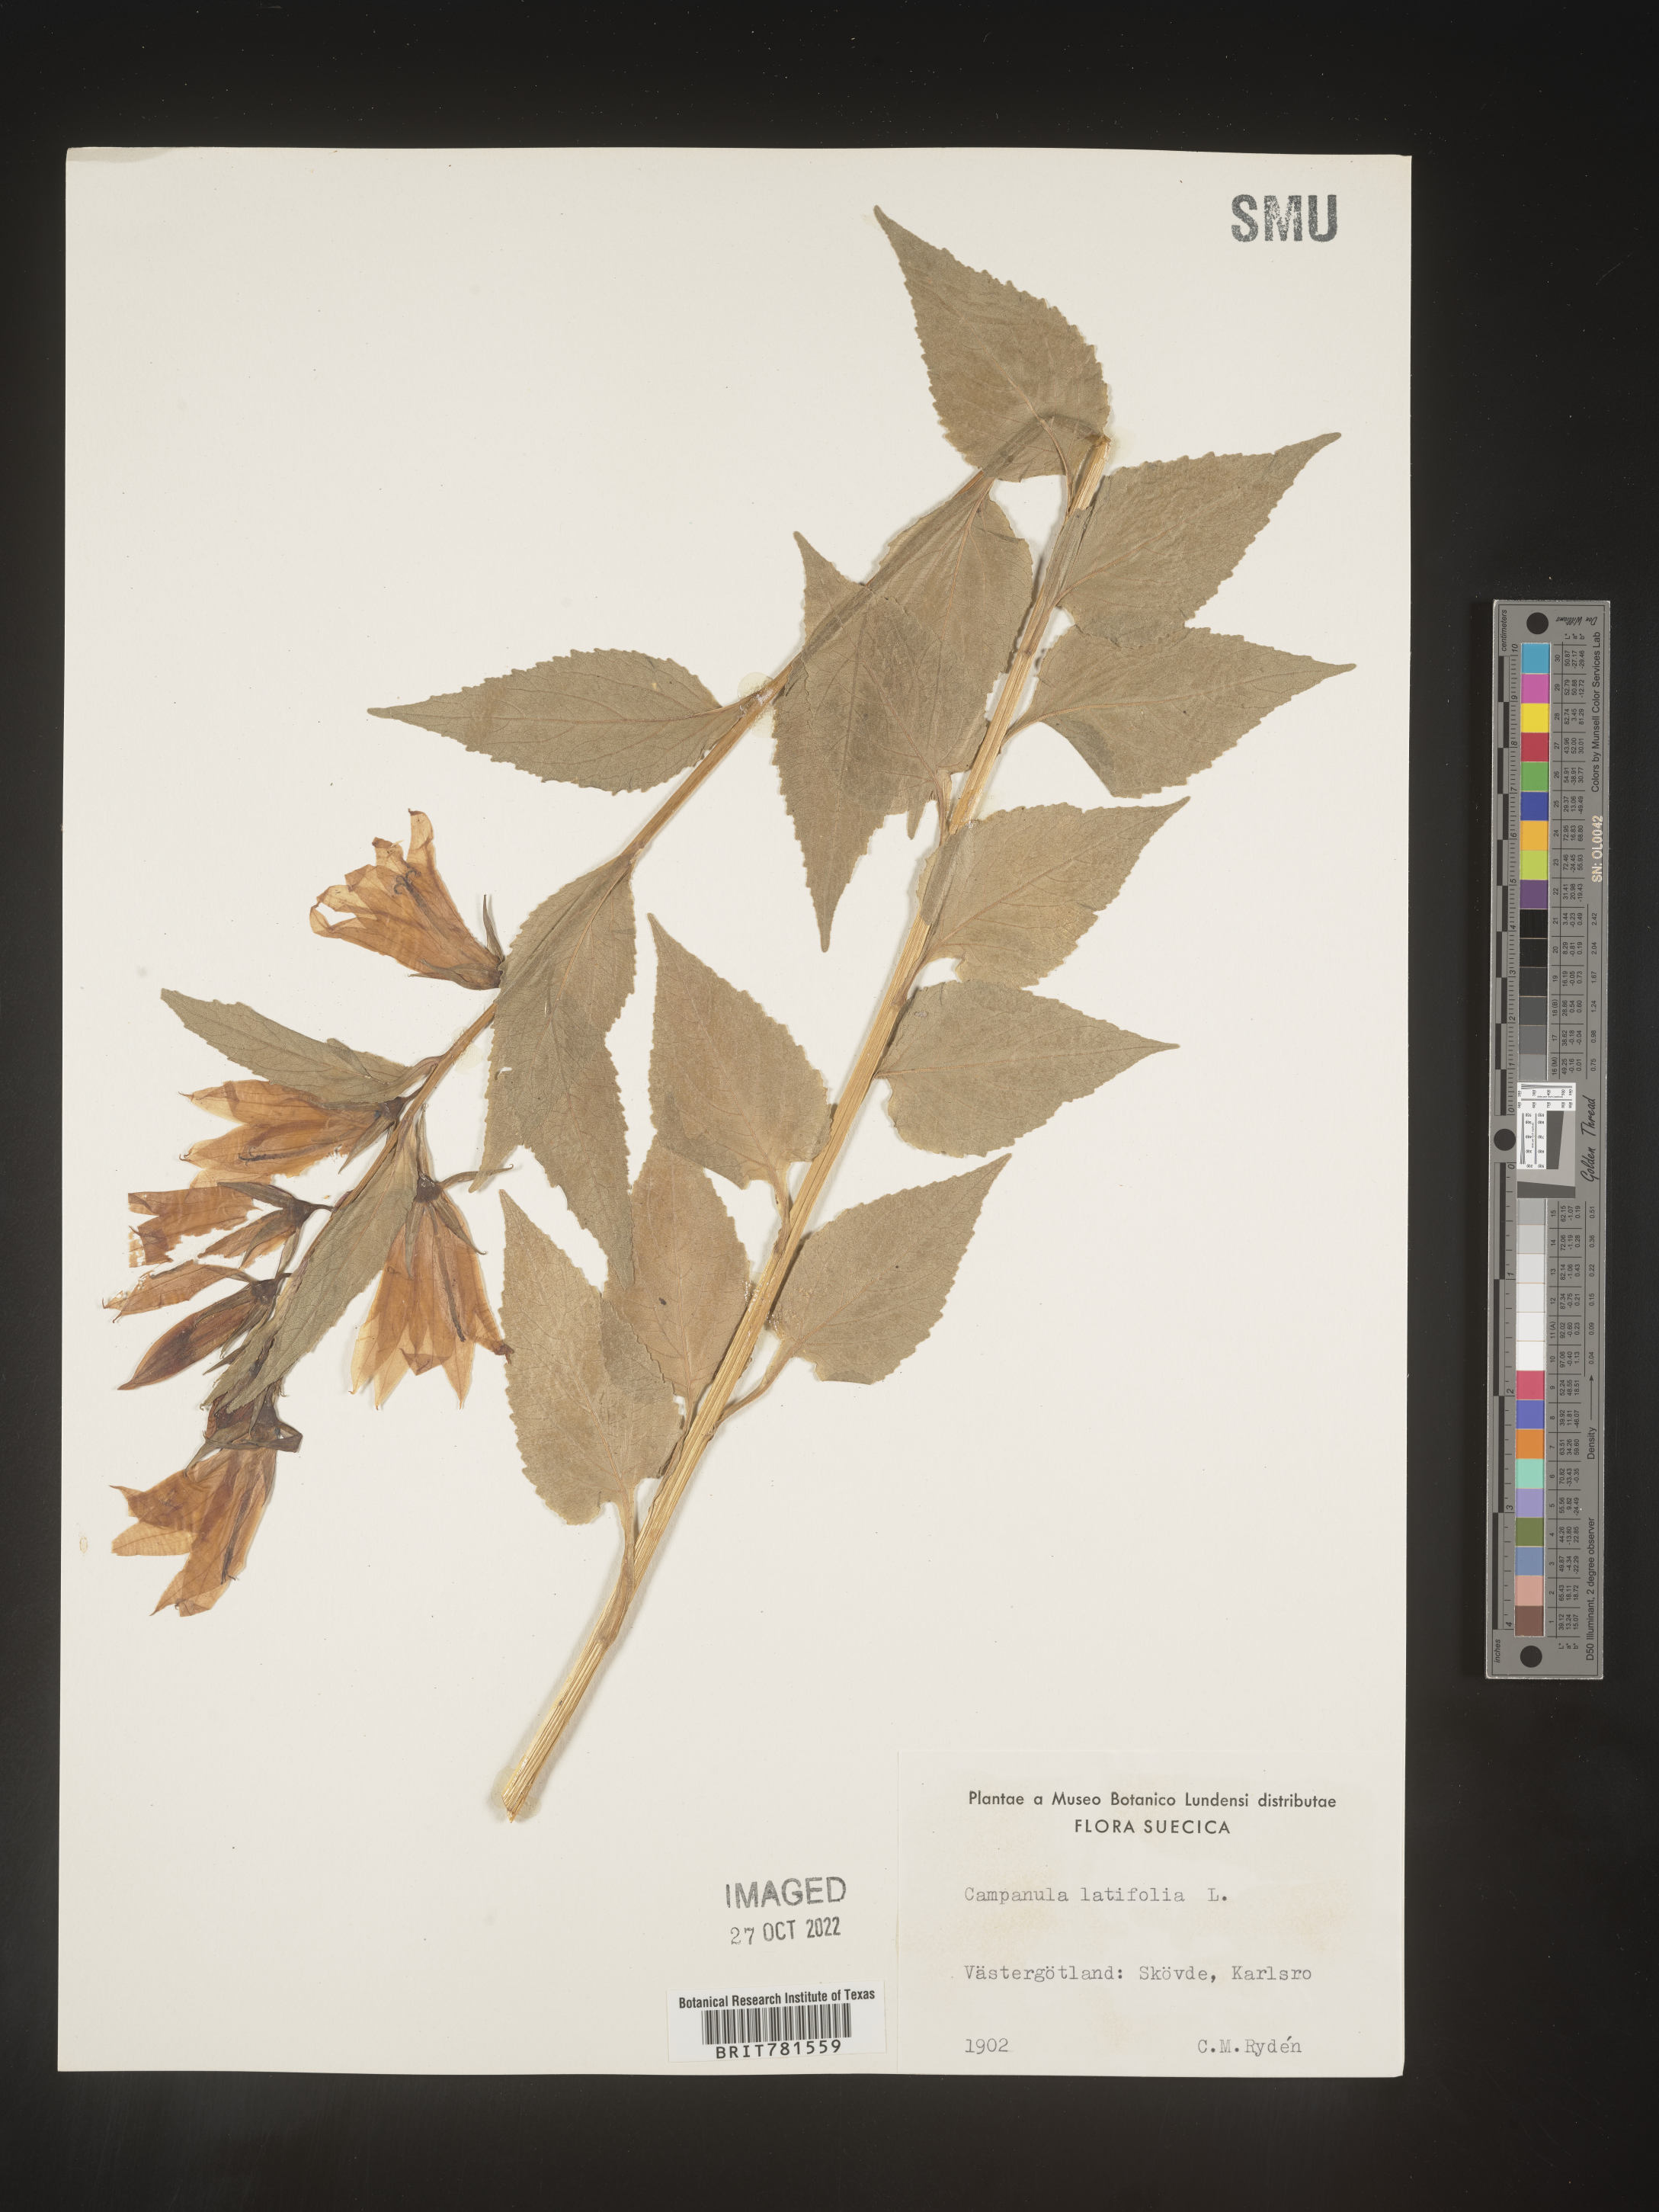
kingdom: Plantae
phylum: Tracheophyta
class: Magnoliopsida
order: Asterales
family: Campanulaceae
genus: Campanula
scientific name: Campanula
